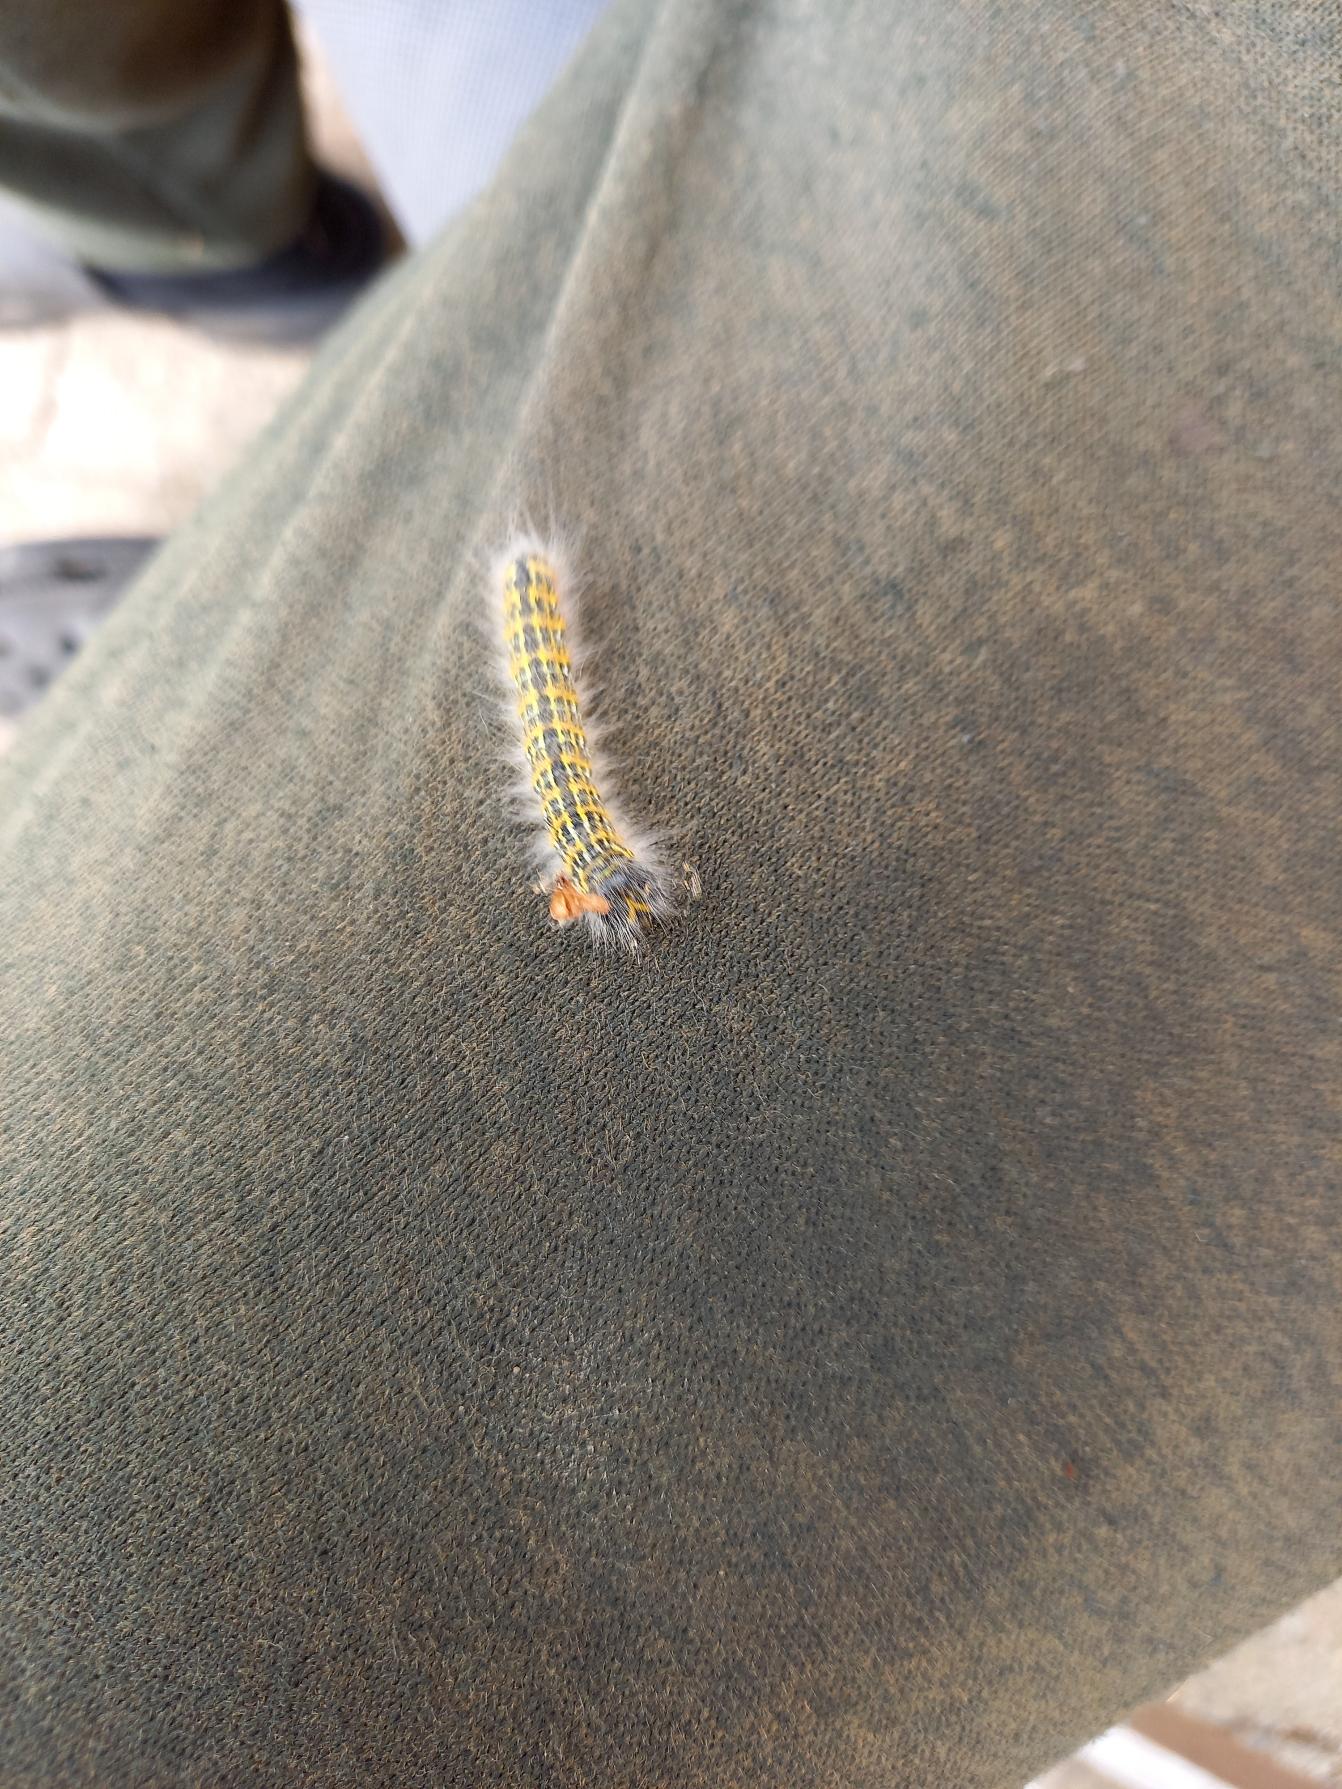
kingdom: Animalia
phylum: Arthropoda
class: Insecta
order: Lepidoptera
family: Notodontidae
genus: Phalera
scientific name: Phalera bucephala
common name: Måneplet
